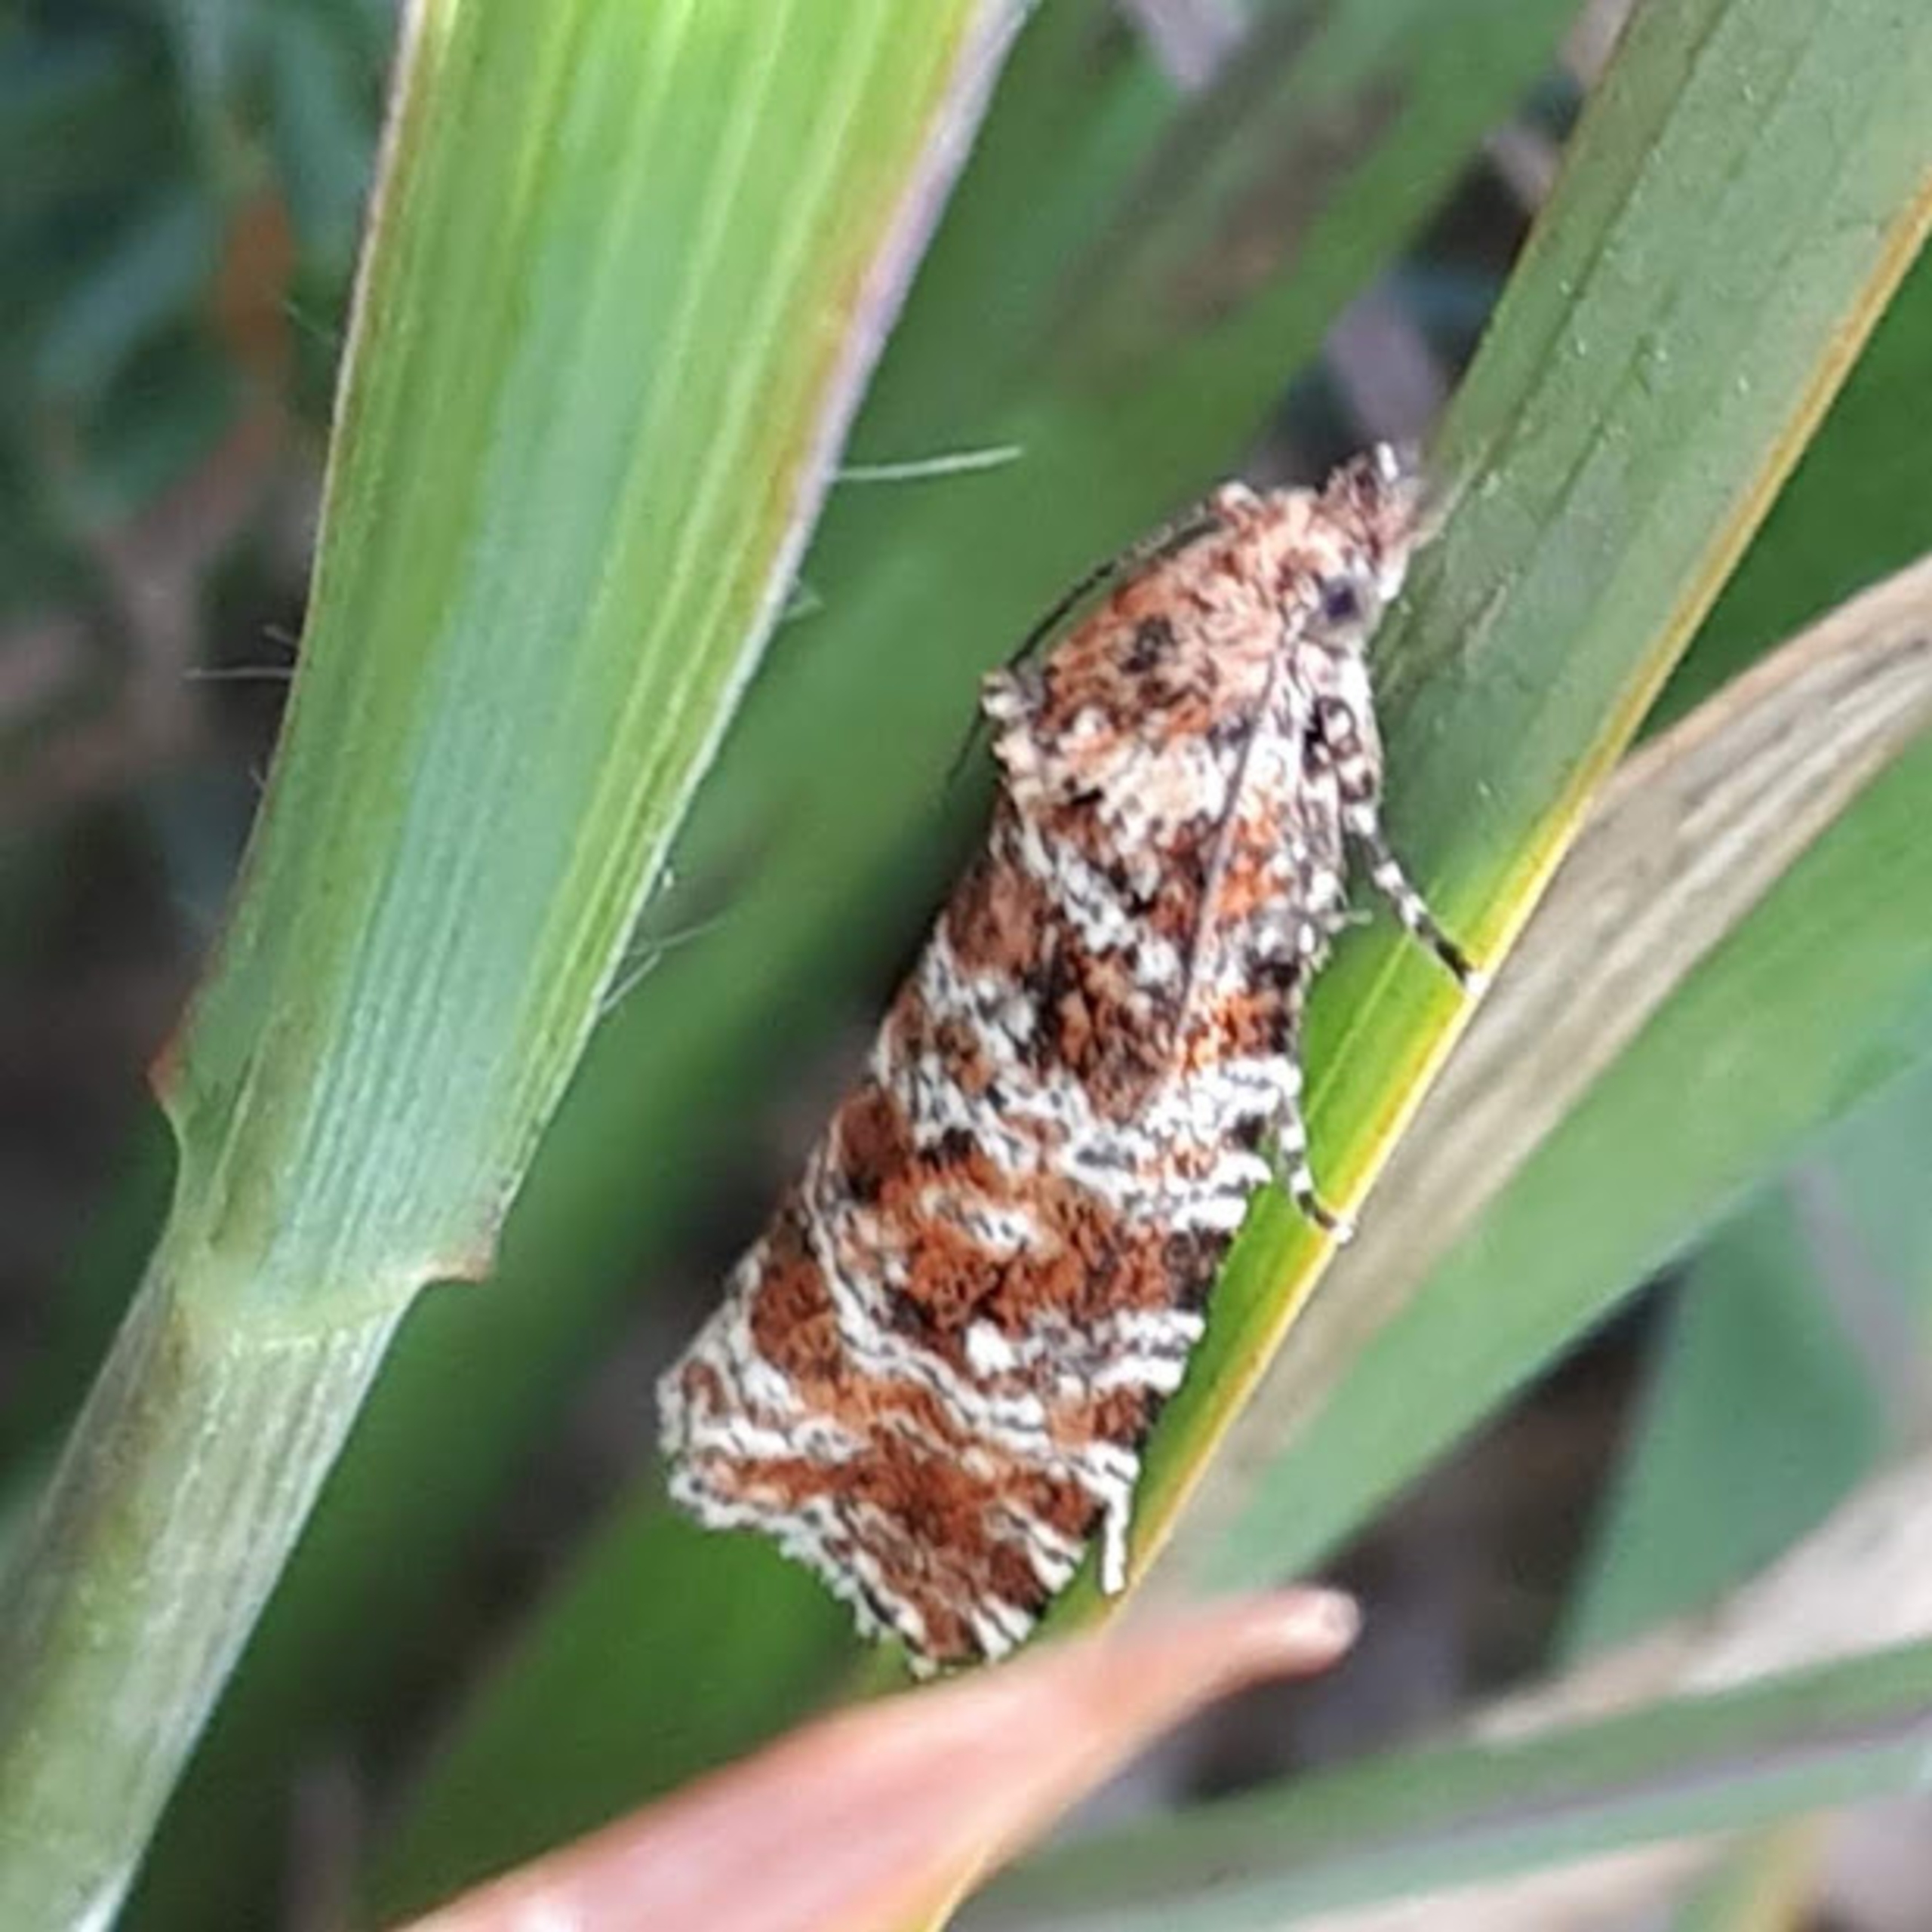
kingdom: Animalia
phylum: Arthropoda
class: Insecta
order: Lepidoptera
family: Tortricidae
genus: Olethreutes
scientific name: Olethreutes schulziana
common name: Litografilyngvikler
